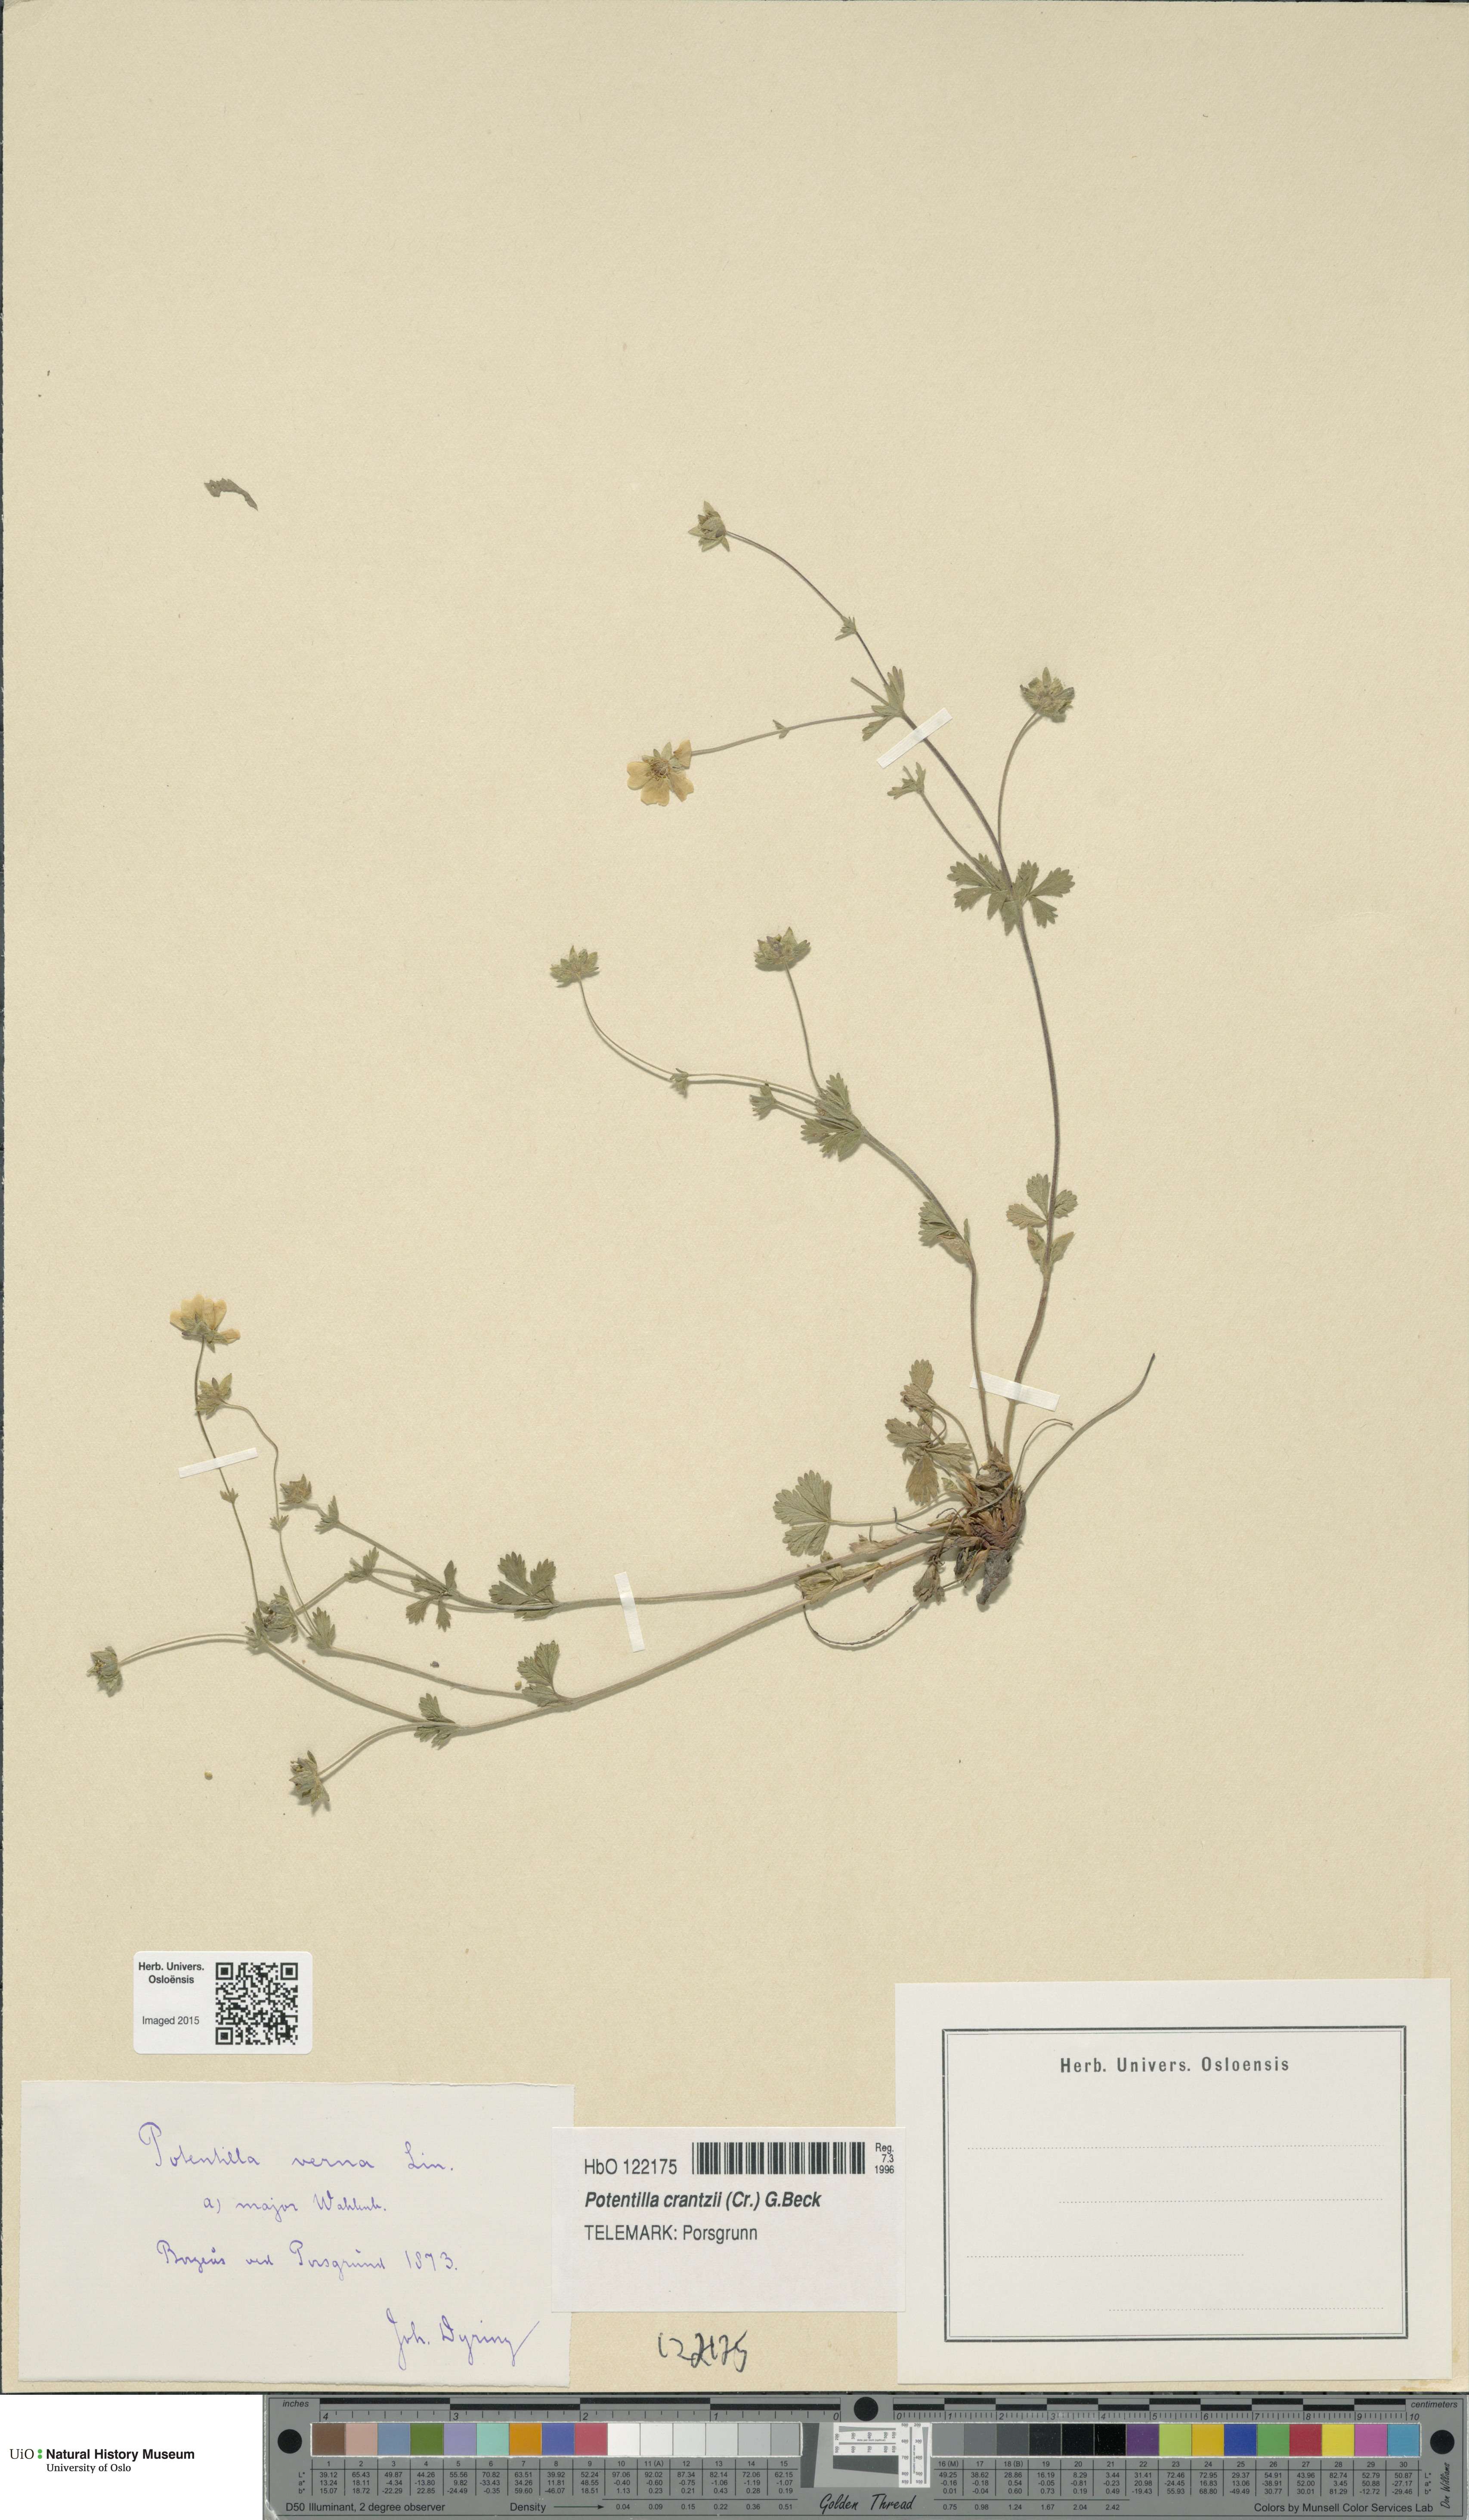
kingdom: Plantae
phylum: Tracheophyta
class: Magnoliopsida
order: Rosales
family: Rosaceae
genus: Potentilla
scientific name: Potentilla verna
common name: Spring cinquefoil
